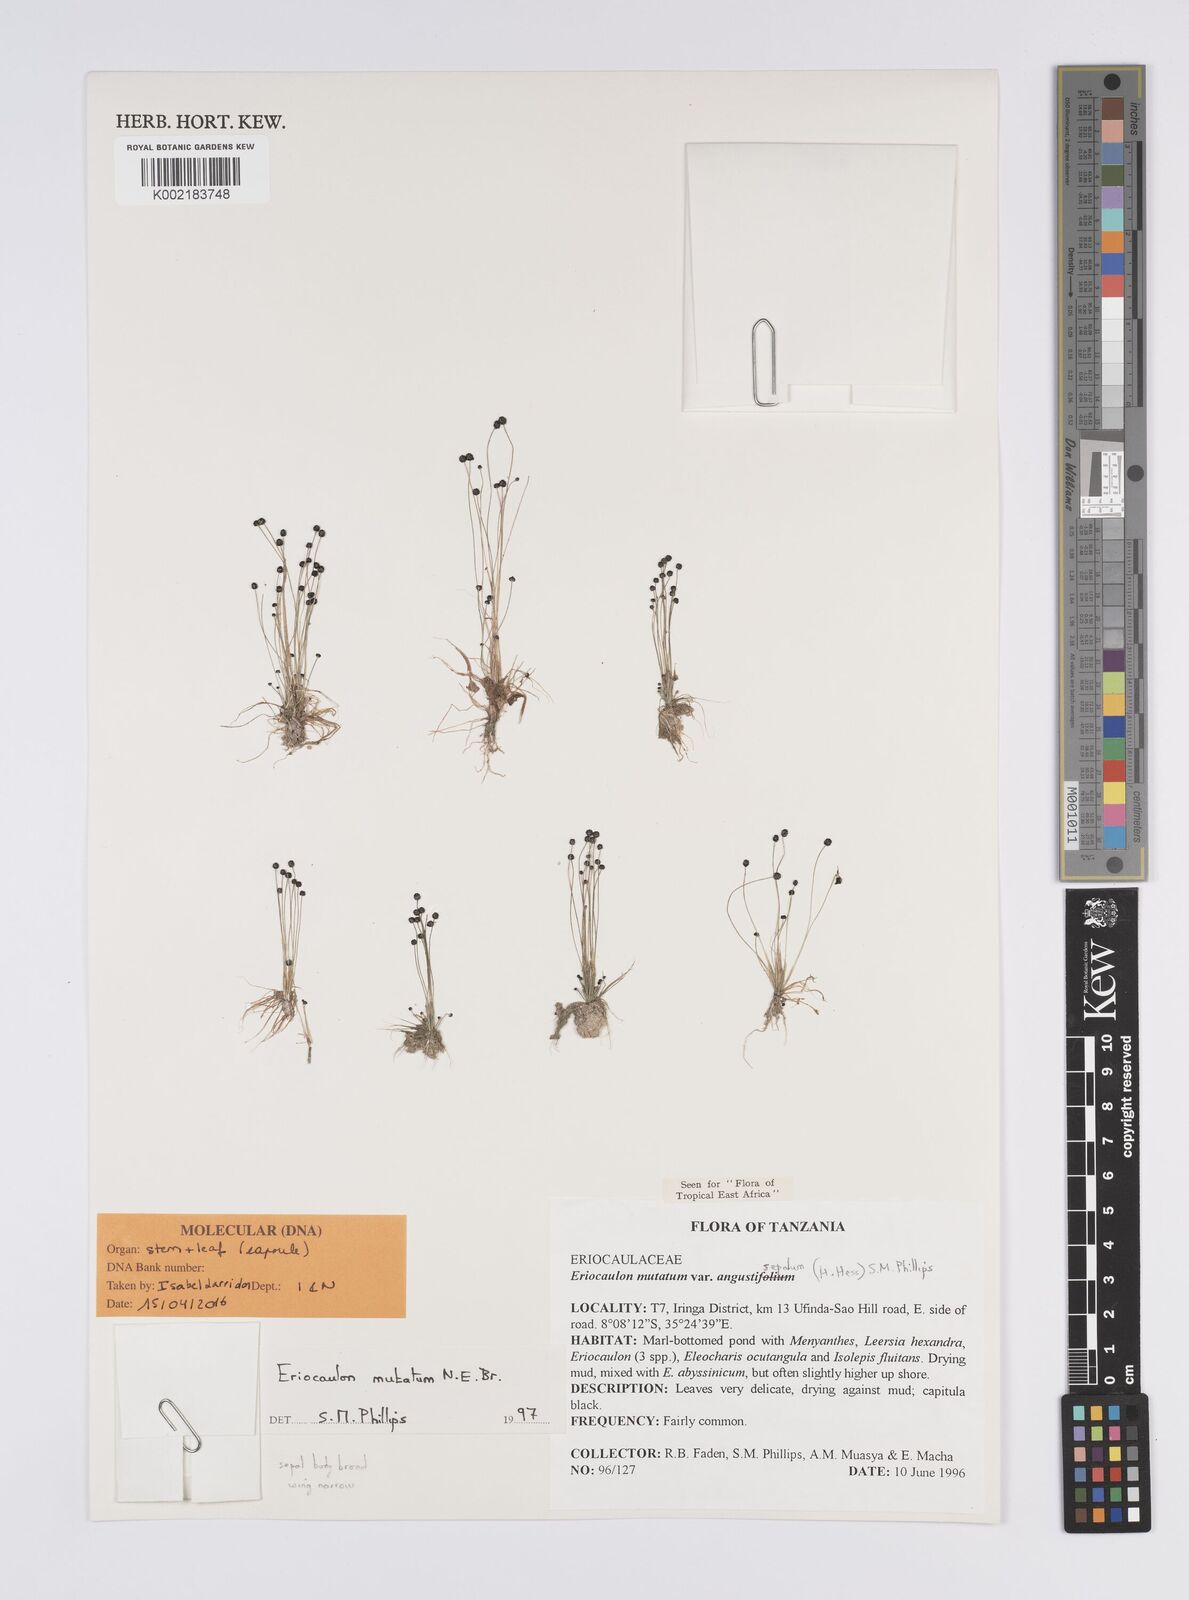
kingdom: Plantae
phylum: Tracheophyta
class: Liliopsida
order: Poales
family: Eriocaulaceae
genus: Eriocaulon
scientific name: Eriocaulon mutatum
